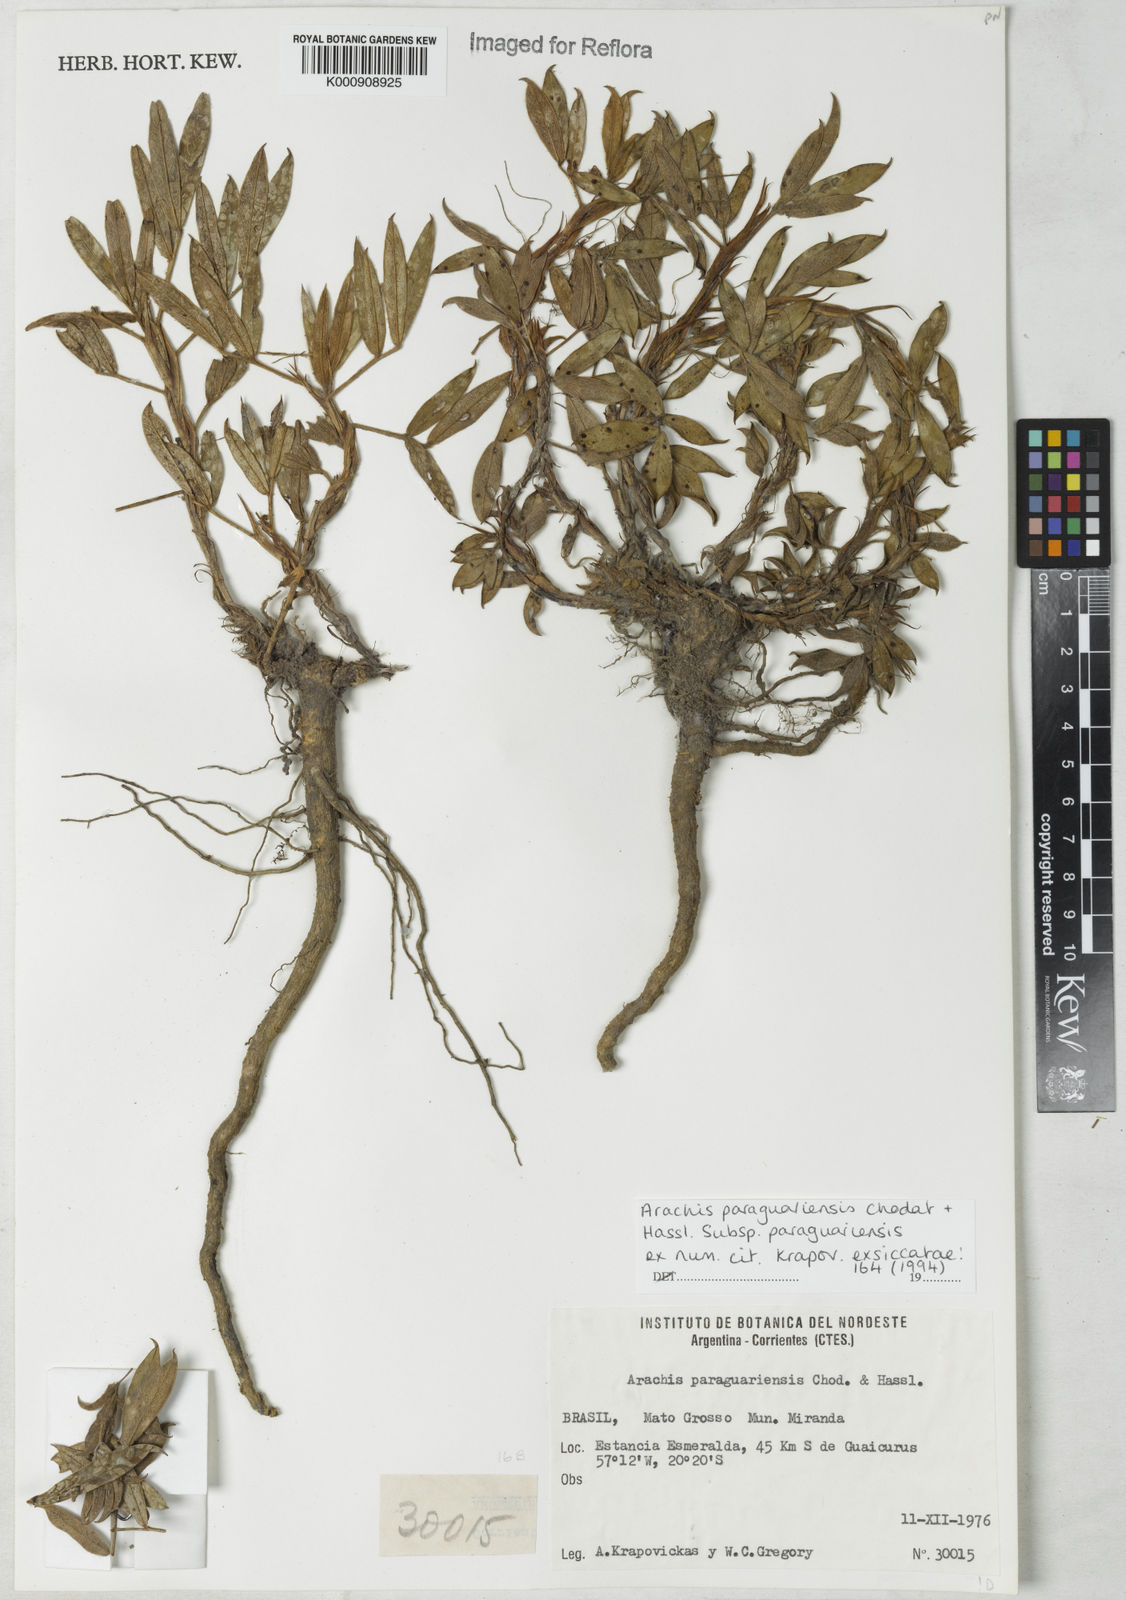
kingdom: Plantae
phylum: Tracheophyta
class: Magnoliopsida
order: Fabales
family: Fabaceae
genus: Arachis
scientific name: Arachis paraguariensis
